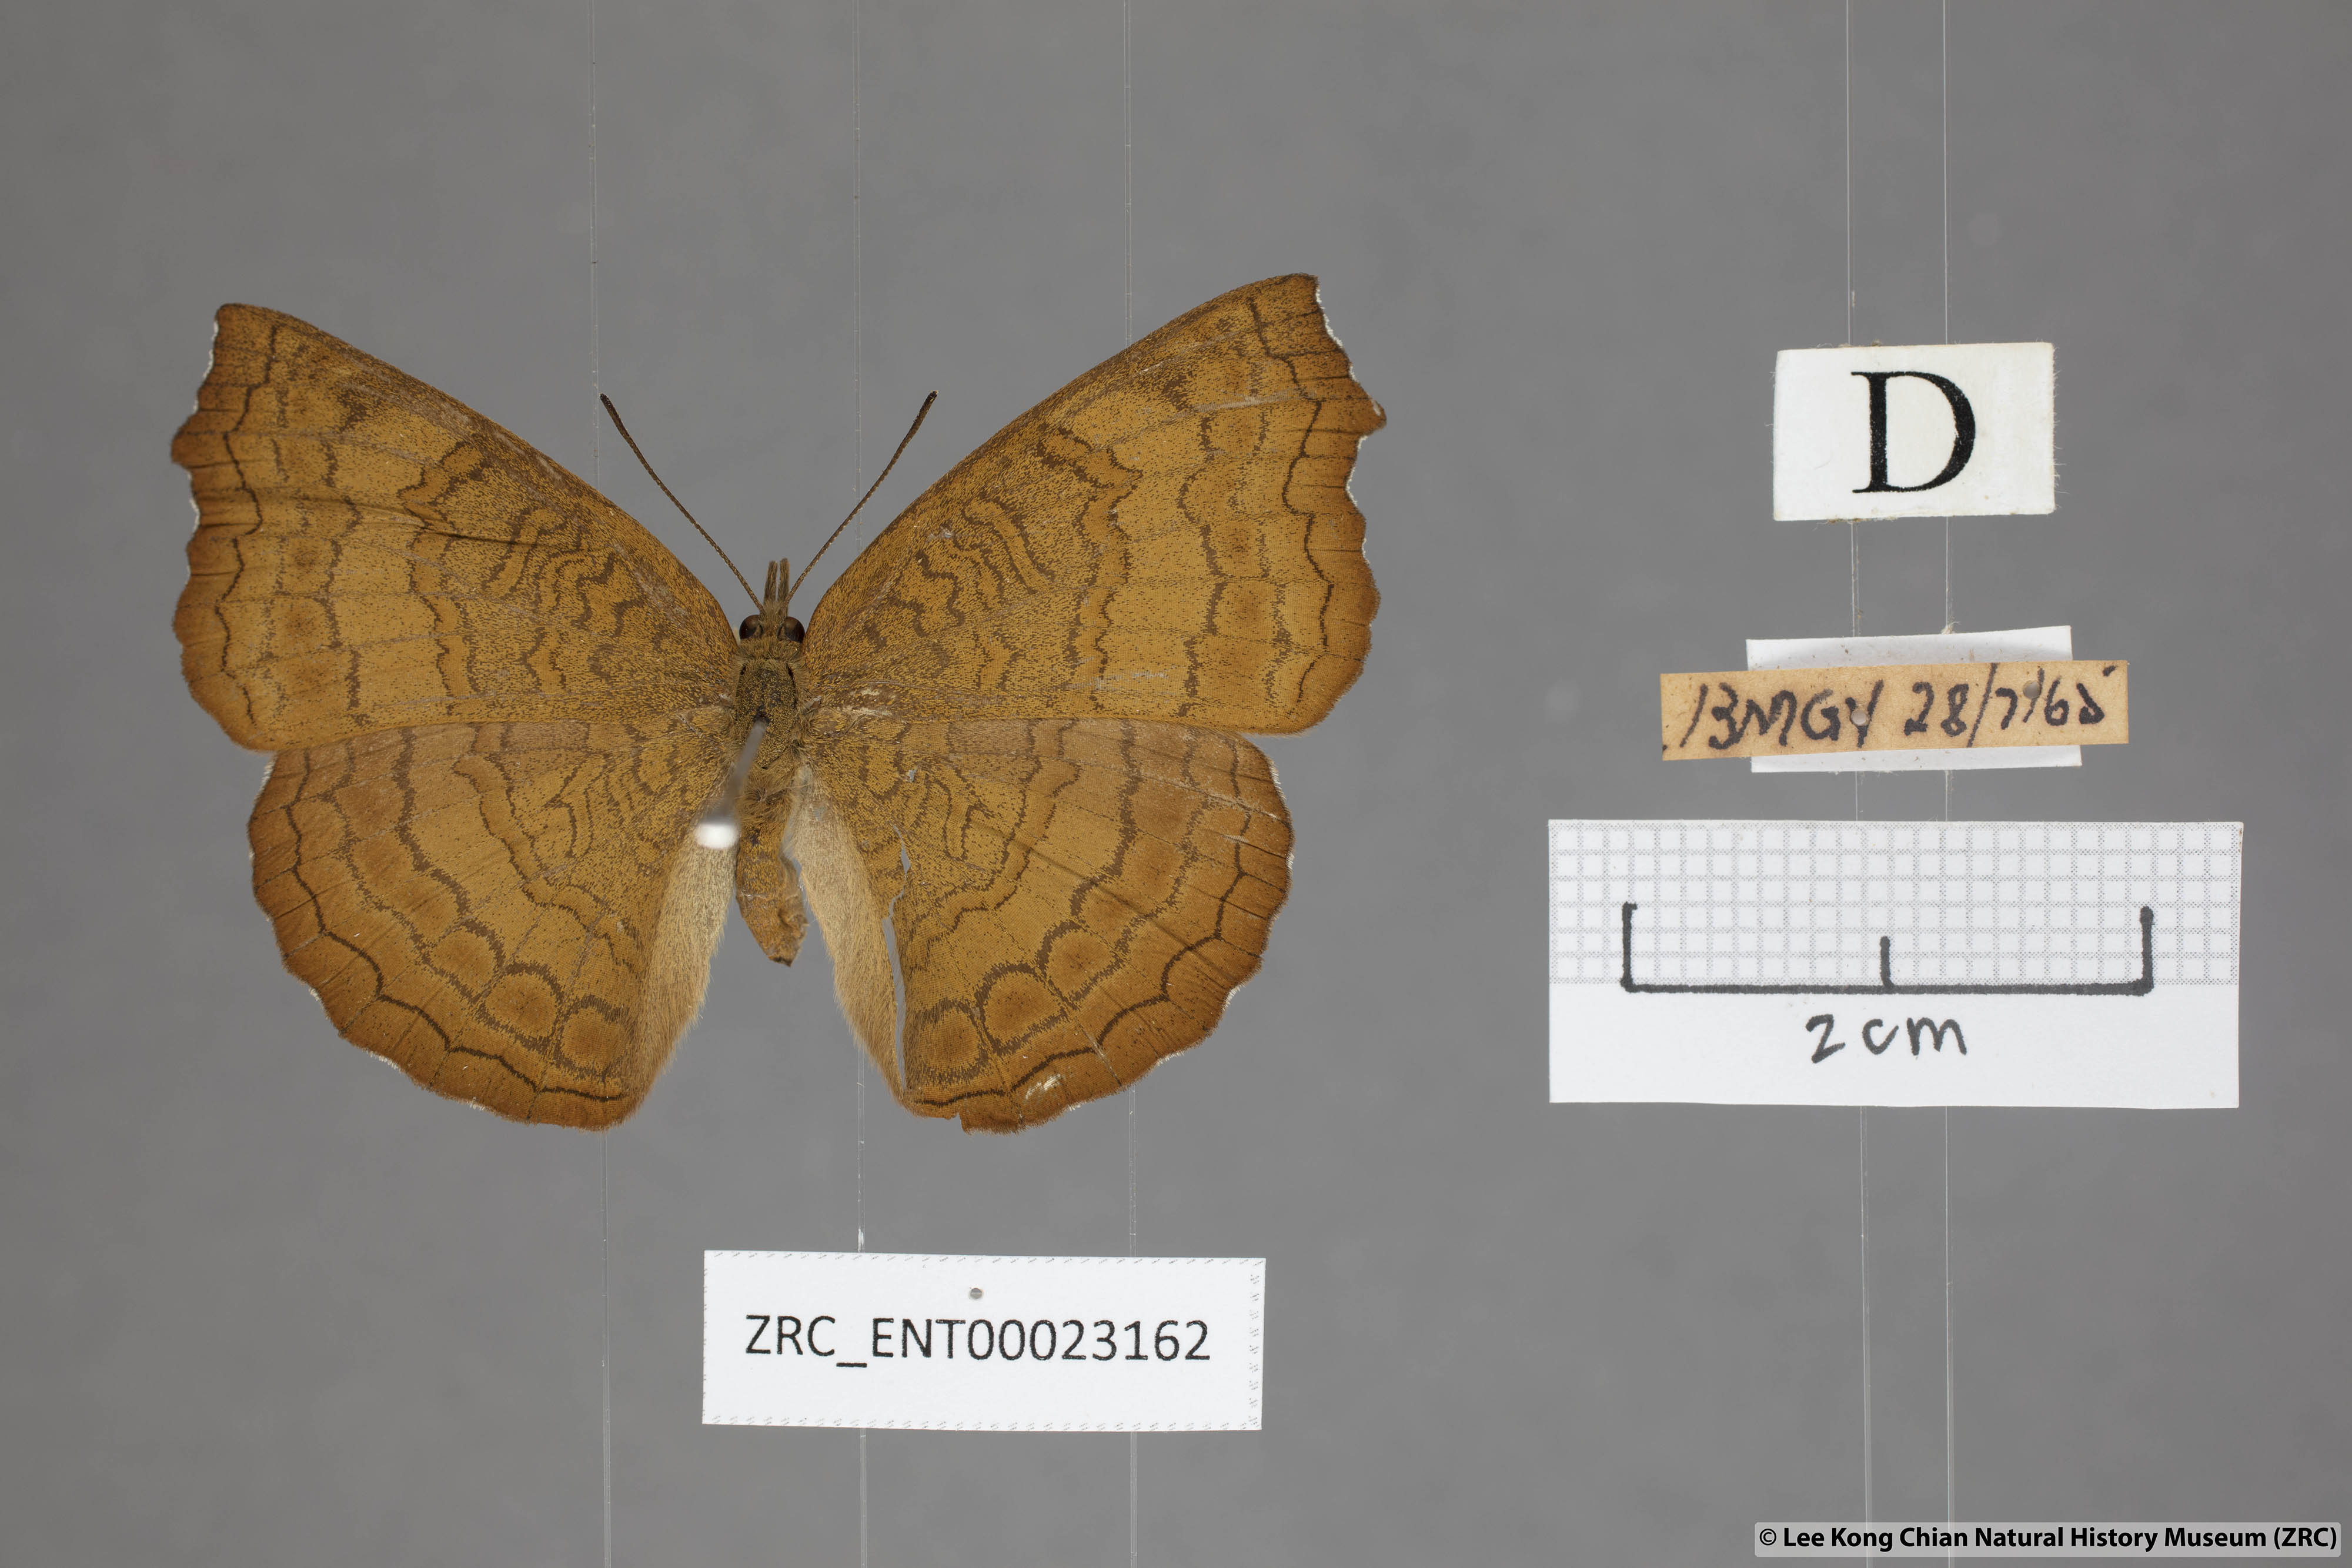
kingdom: Animalia
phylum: Arthropoda
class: Insecta
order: Lepidoptera
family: Nymphalidae
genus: Ariadne
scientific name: Ariadne isaeus
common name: Malayan castor
